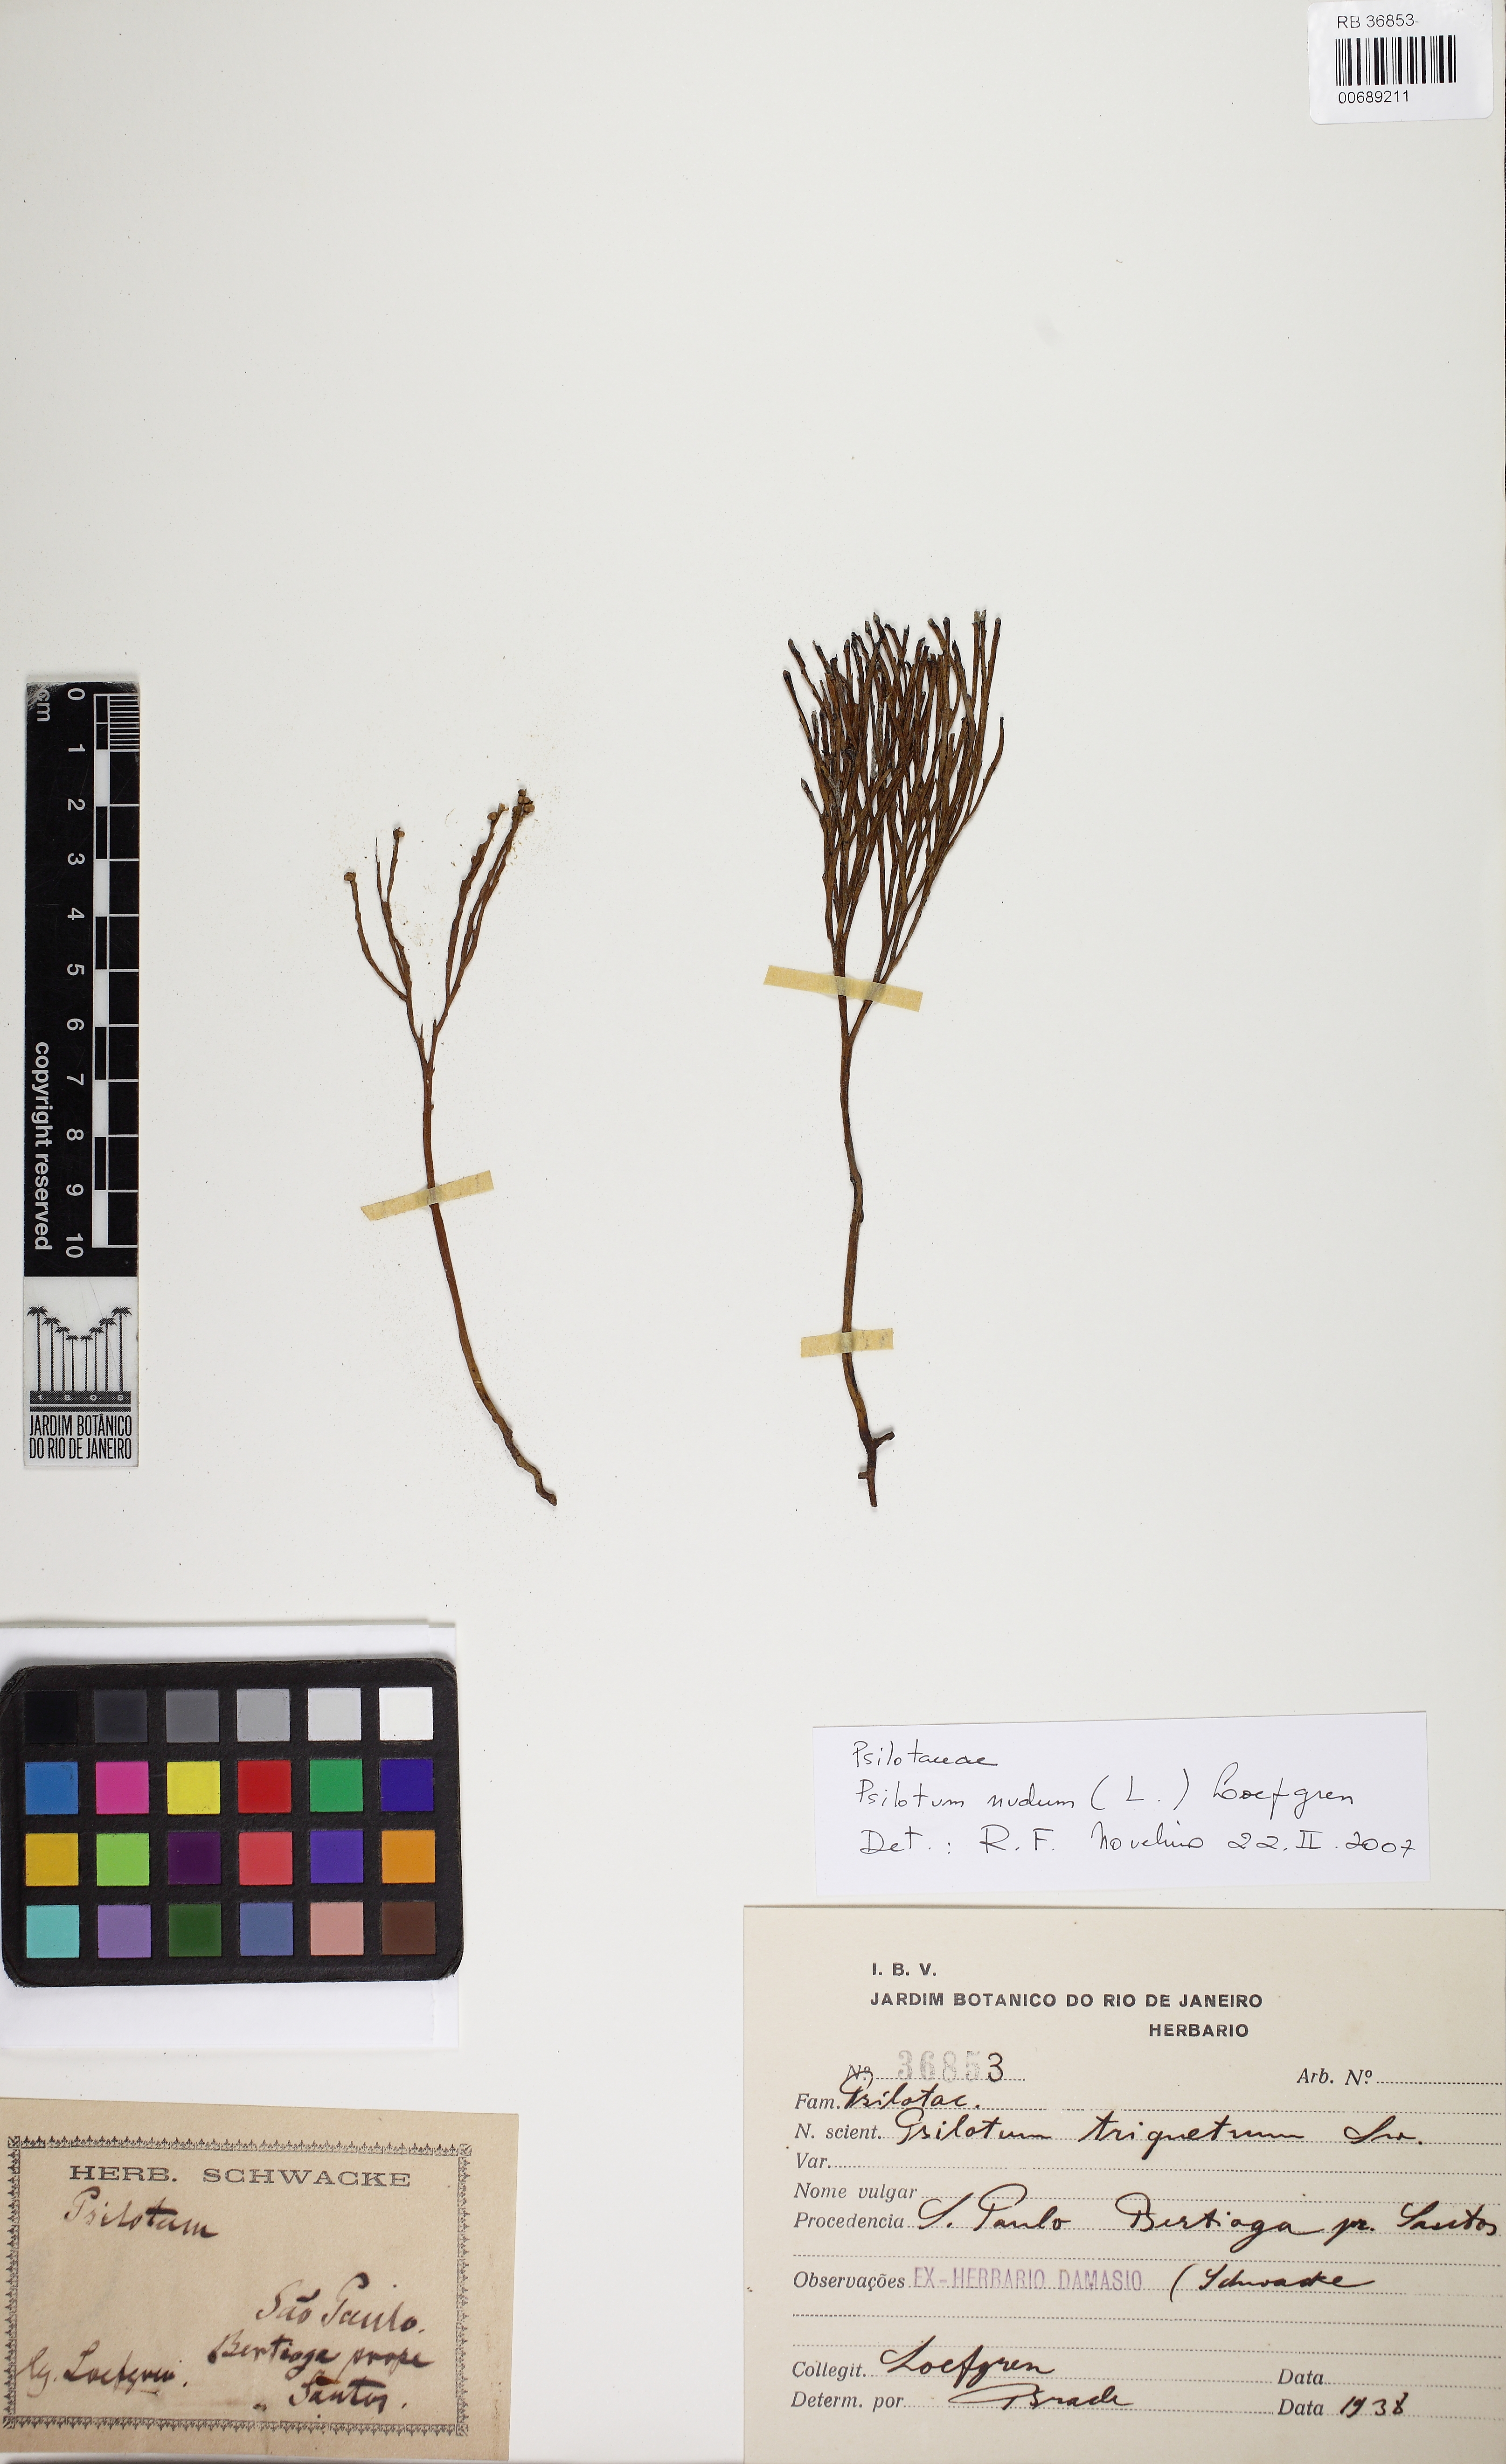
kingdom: Plantae
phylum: Tracheophyta
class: Polypodiopsida
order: Psilotales
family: Psilotaceae
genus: Psilotum
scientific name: Psilotum nudum
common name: Skeleton fork fern
